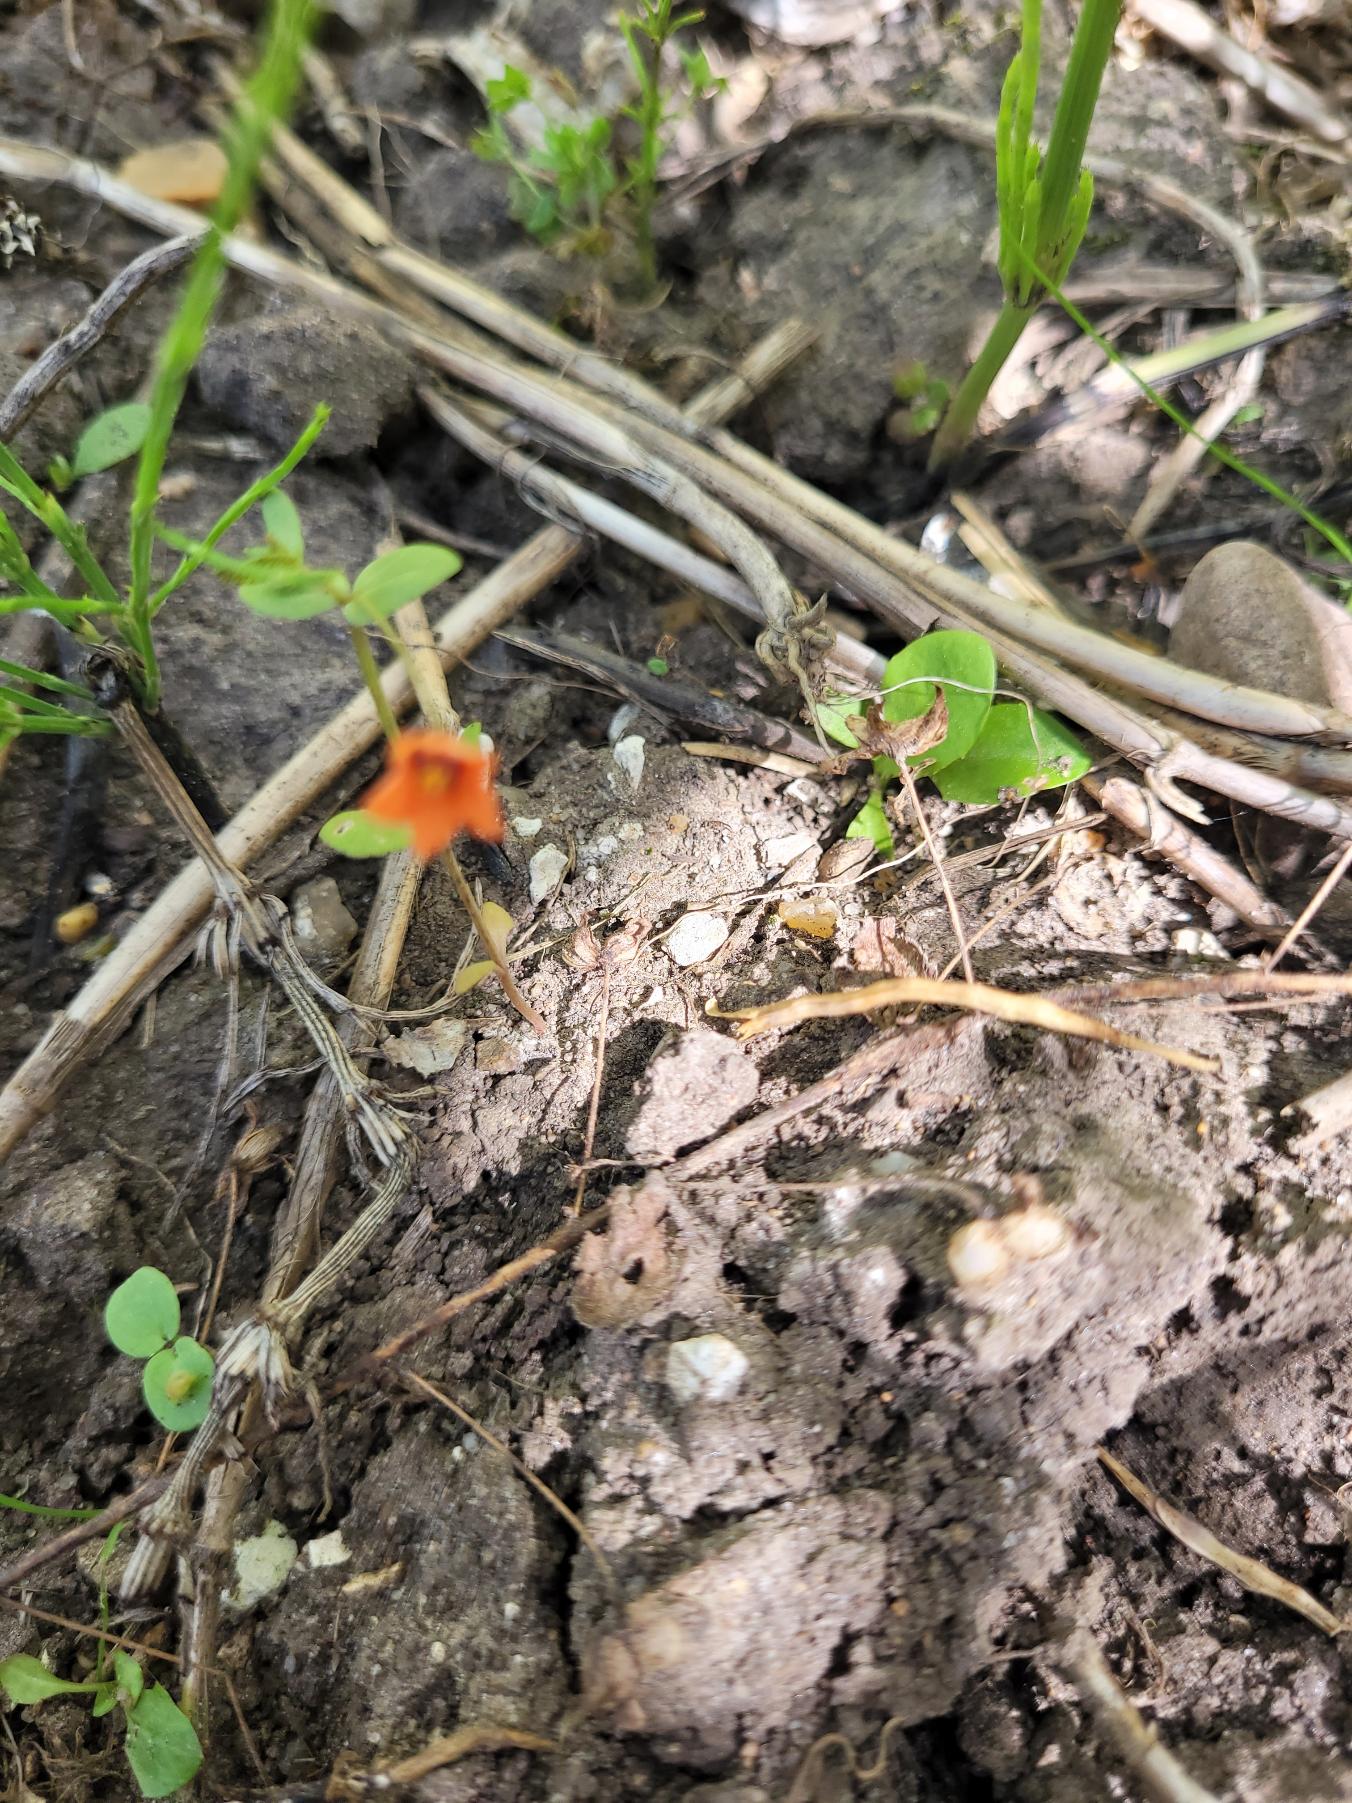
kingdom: Plantae
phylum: Tracheophyta
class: Magnoliopsida
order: Ericales
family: Primulaceae
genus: Lysimachia
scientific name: Lysimachia arvensis
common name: Rød arve
